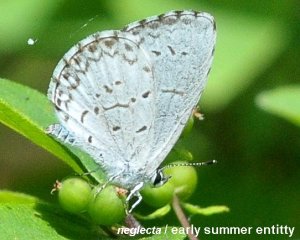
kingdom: Animalia
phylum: Arthropoda
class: Insecta
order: Lepidoptera
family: Lycaenidae
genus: Cyaniris
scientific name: Cyaniris neglecta
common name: Summer Azure
